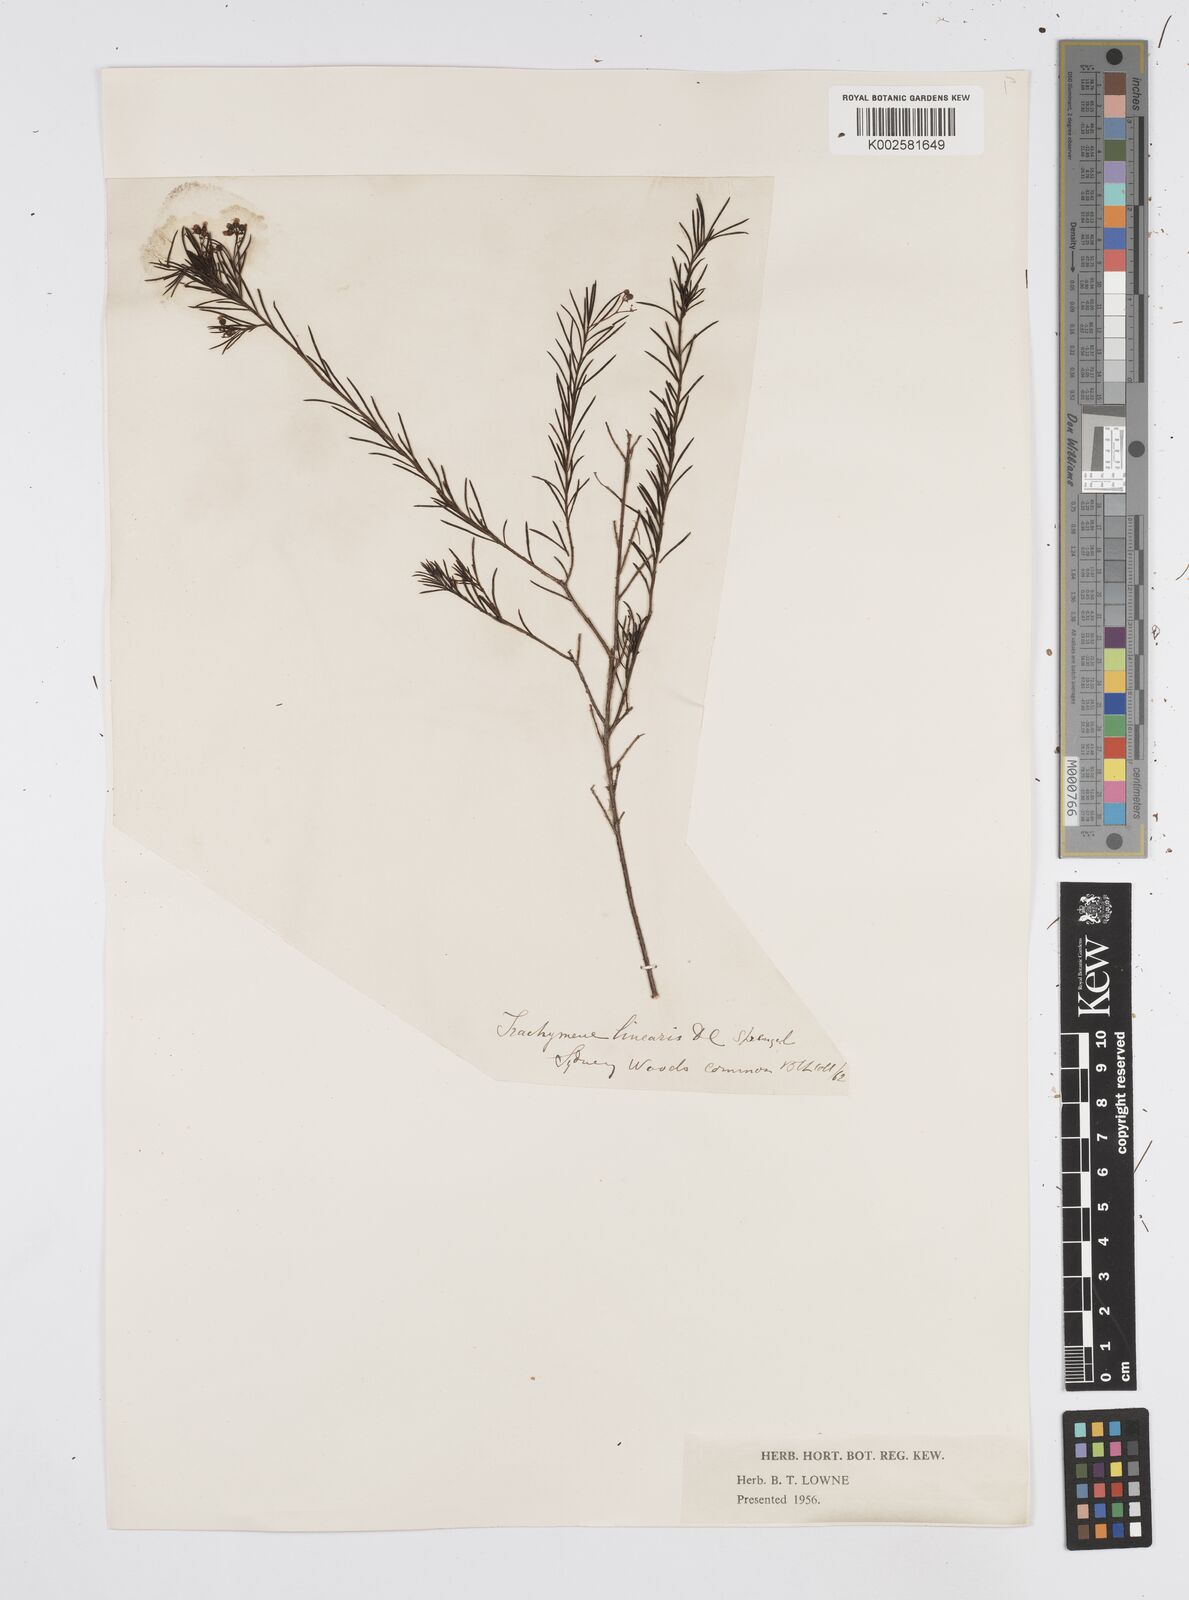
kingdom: Plantae
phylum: Tracheophyta
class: Magnoliopsida
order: Apiales
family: Apiaceae
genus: Platysace
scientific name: Platysace linearifolia
